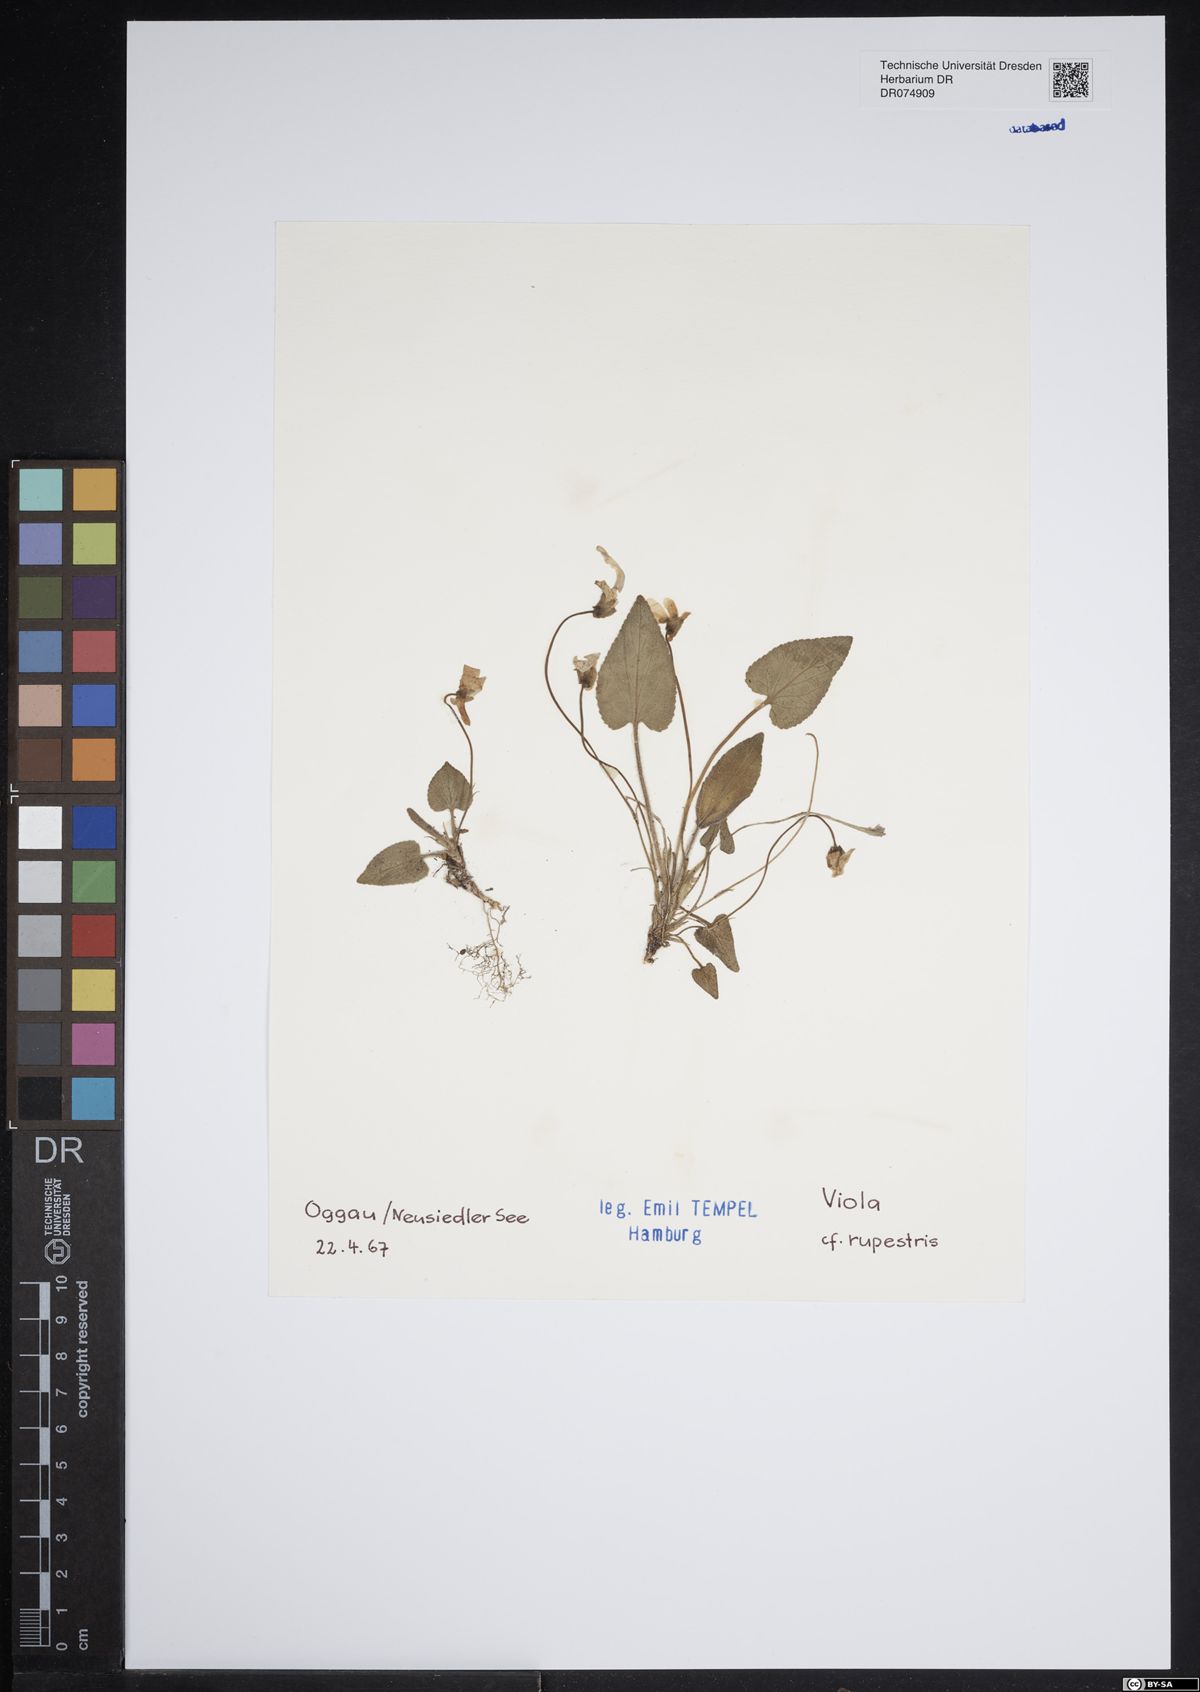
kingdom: Plantae
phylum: Tracheophyta
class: Magnoliopsida
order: Malpighiales
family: Violaceae
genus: Viola
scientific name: Viola rupestris
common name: Teesdale violet
